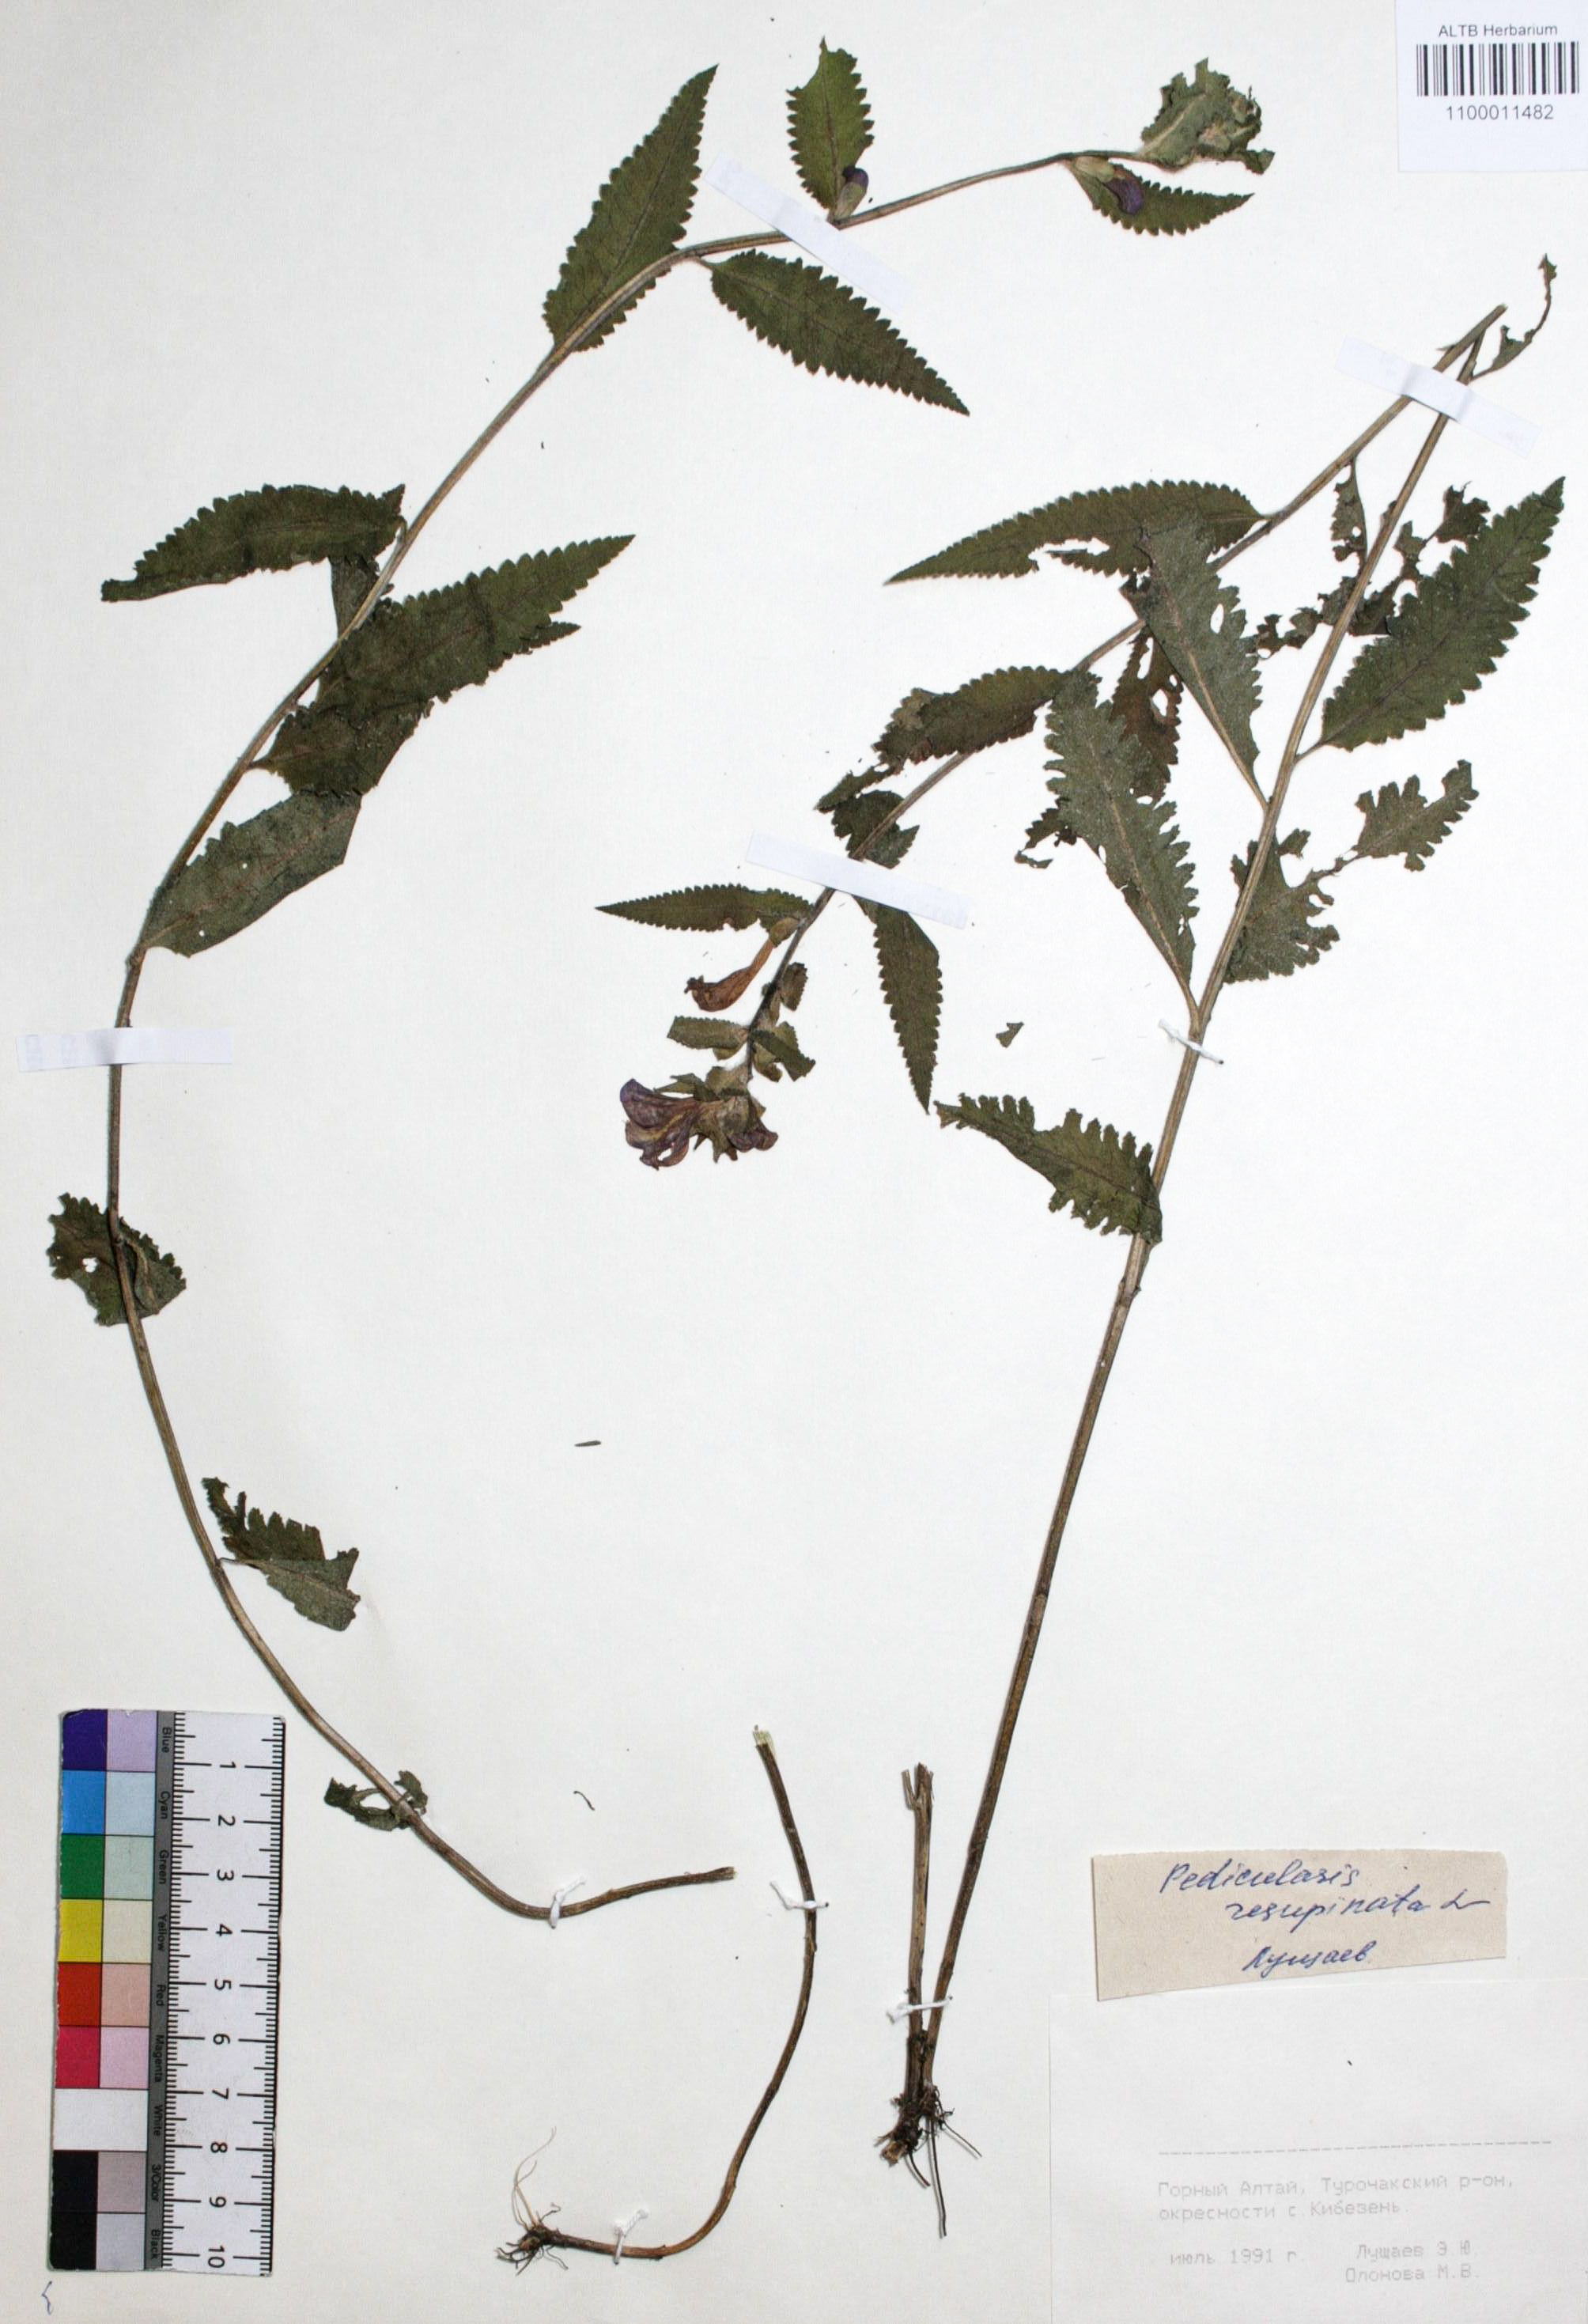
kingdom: Plantae
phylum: Tracheophyta
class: Magnoliopsida
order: Lamiales
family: Orobanchaceae
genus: Pedicularis
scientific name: Pedicularis resupinata
